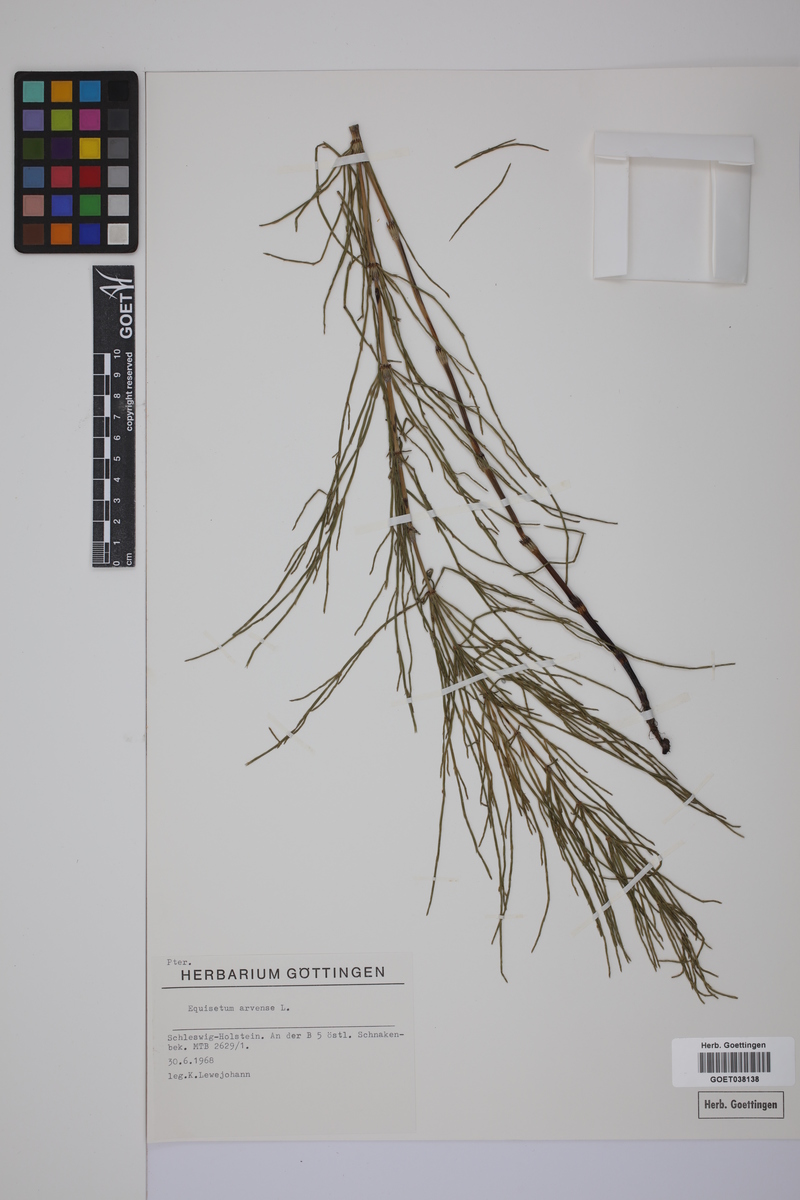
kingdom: Plantae
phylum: Tracheophyta
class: Polypodiopsida
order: Equisetales
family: Equisetaceae
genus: Equisetum
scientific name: Equisetum arvense
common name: Field horsetail
